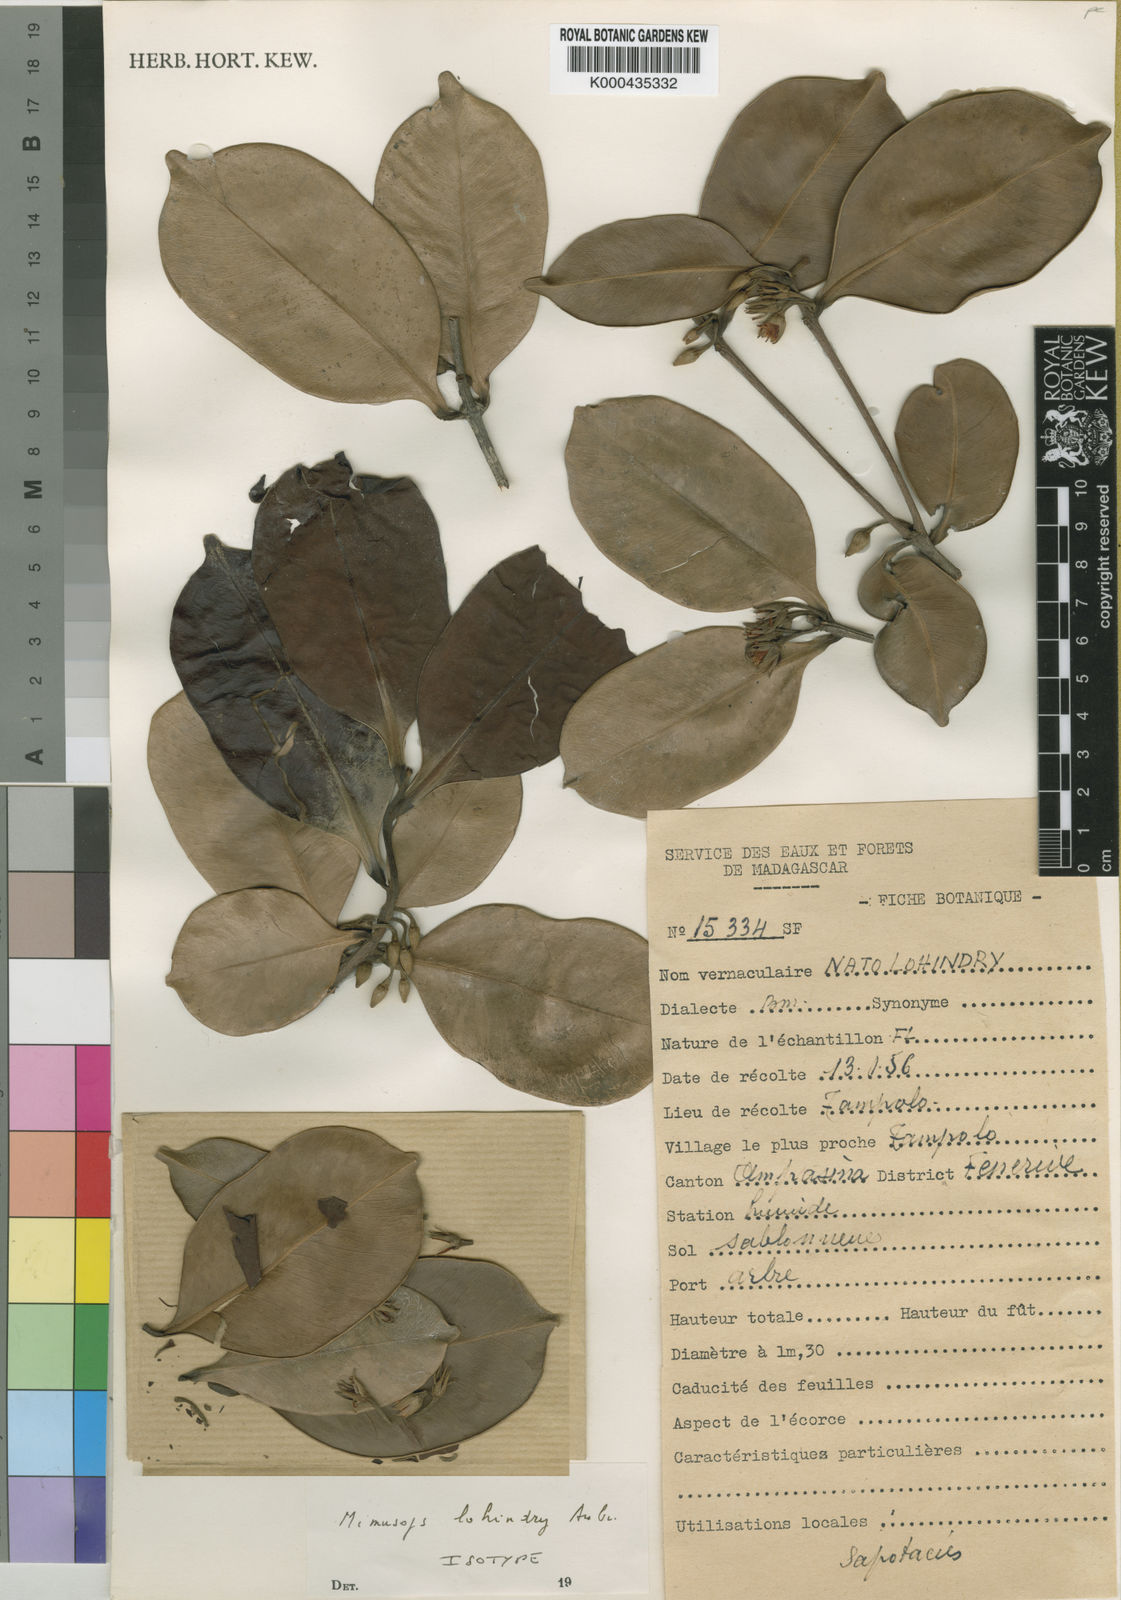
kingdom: Plantae
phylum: Tracheophyta
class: Magnoliopsida
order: Ericales
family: Sapotaceae
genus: Mimusops
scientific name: Mimusops
